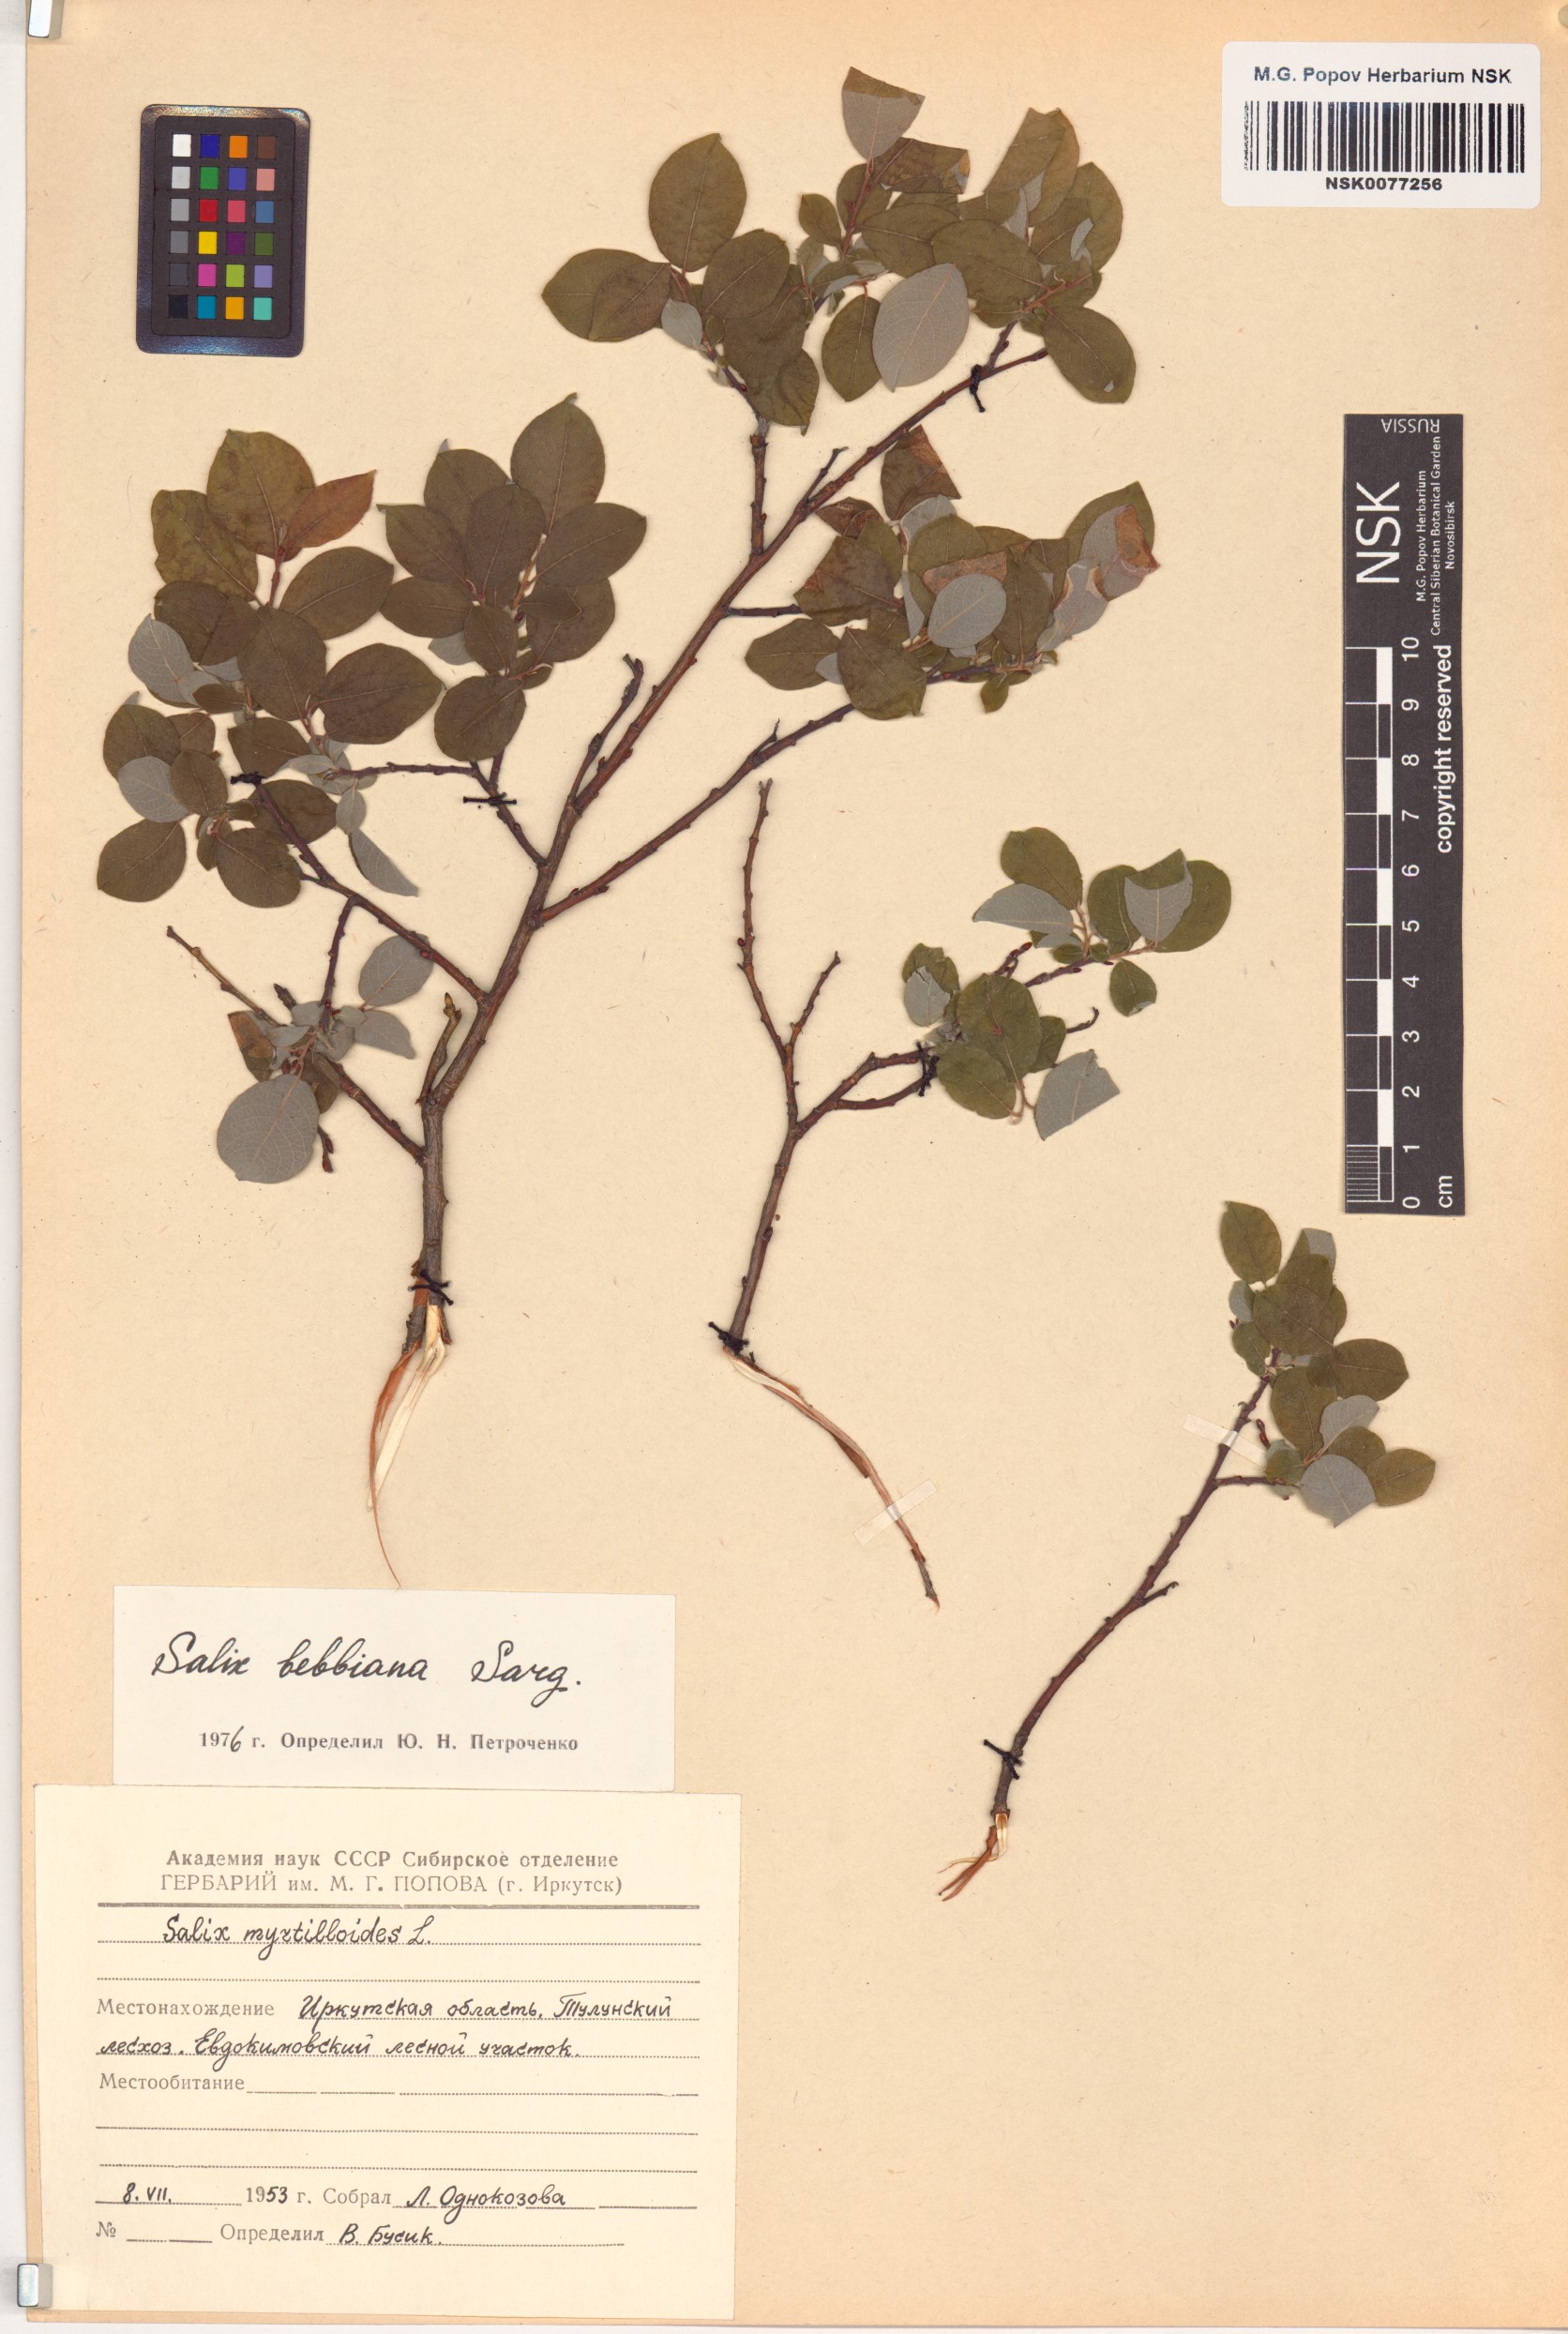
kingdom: Plantae
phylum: Tracheophyta
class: Magnoliopsida
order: Malpighiales
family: Salicaceae
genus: Salix
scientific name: Salix bebbiana
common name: Bebb's willow
